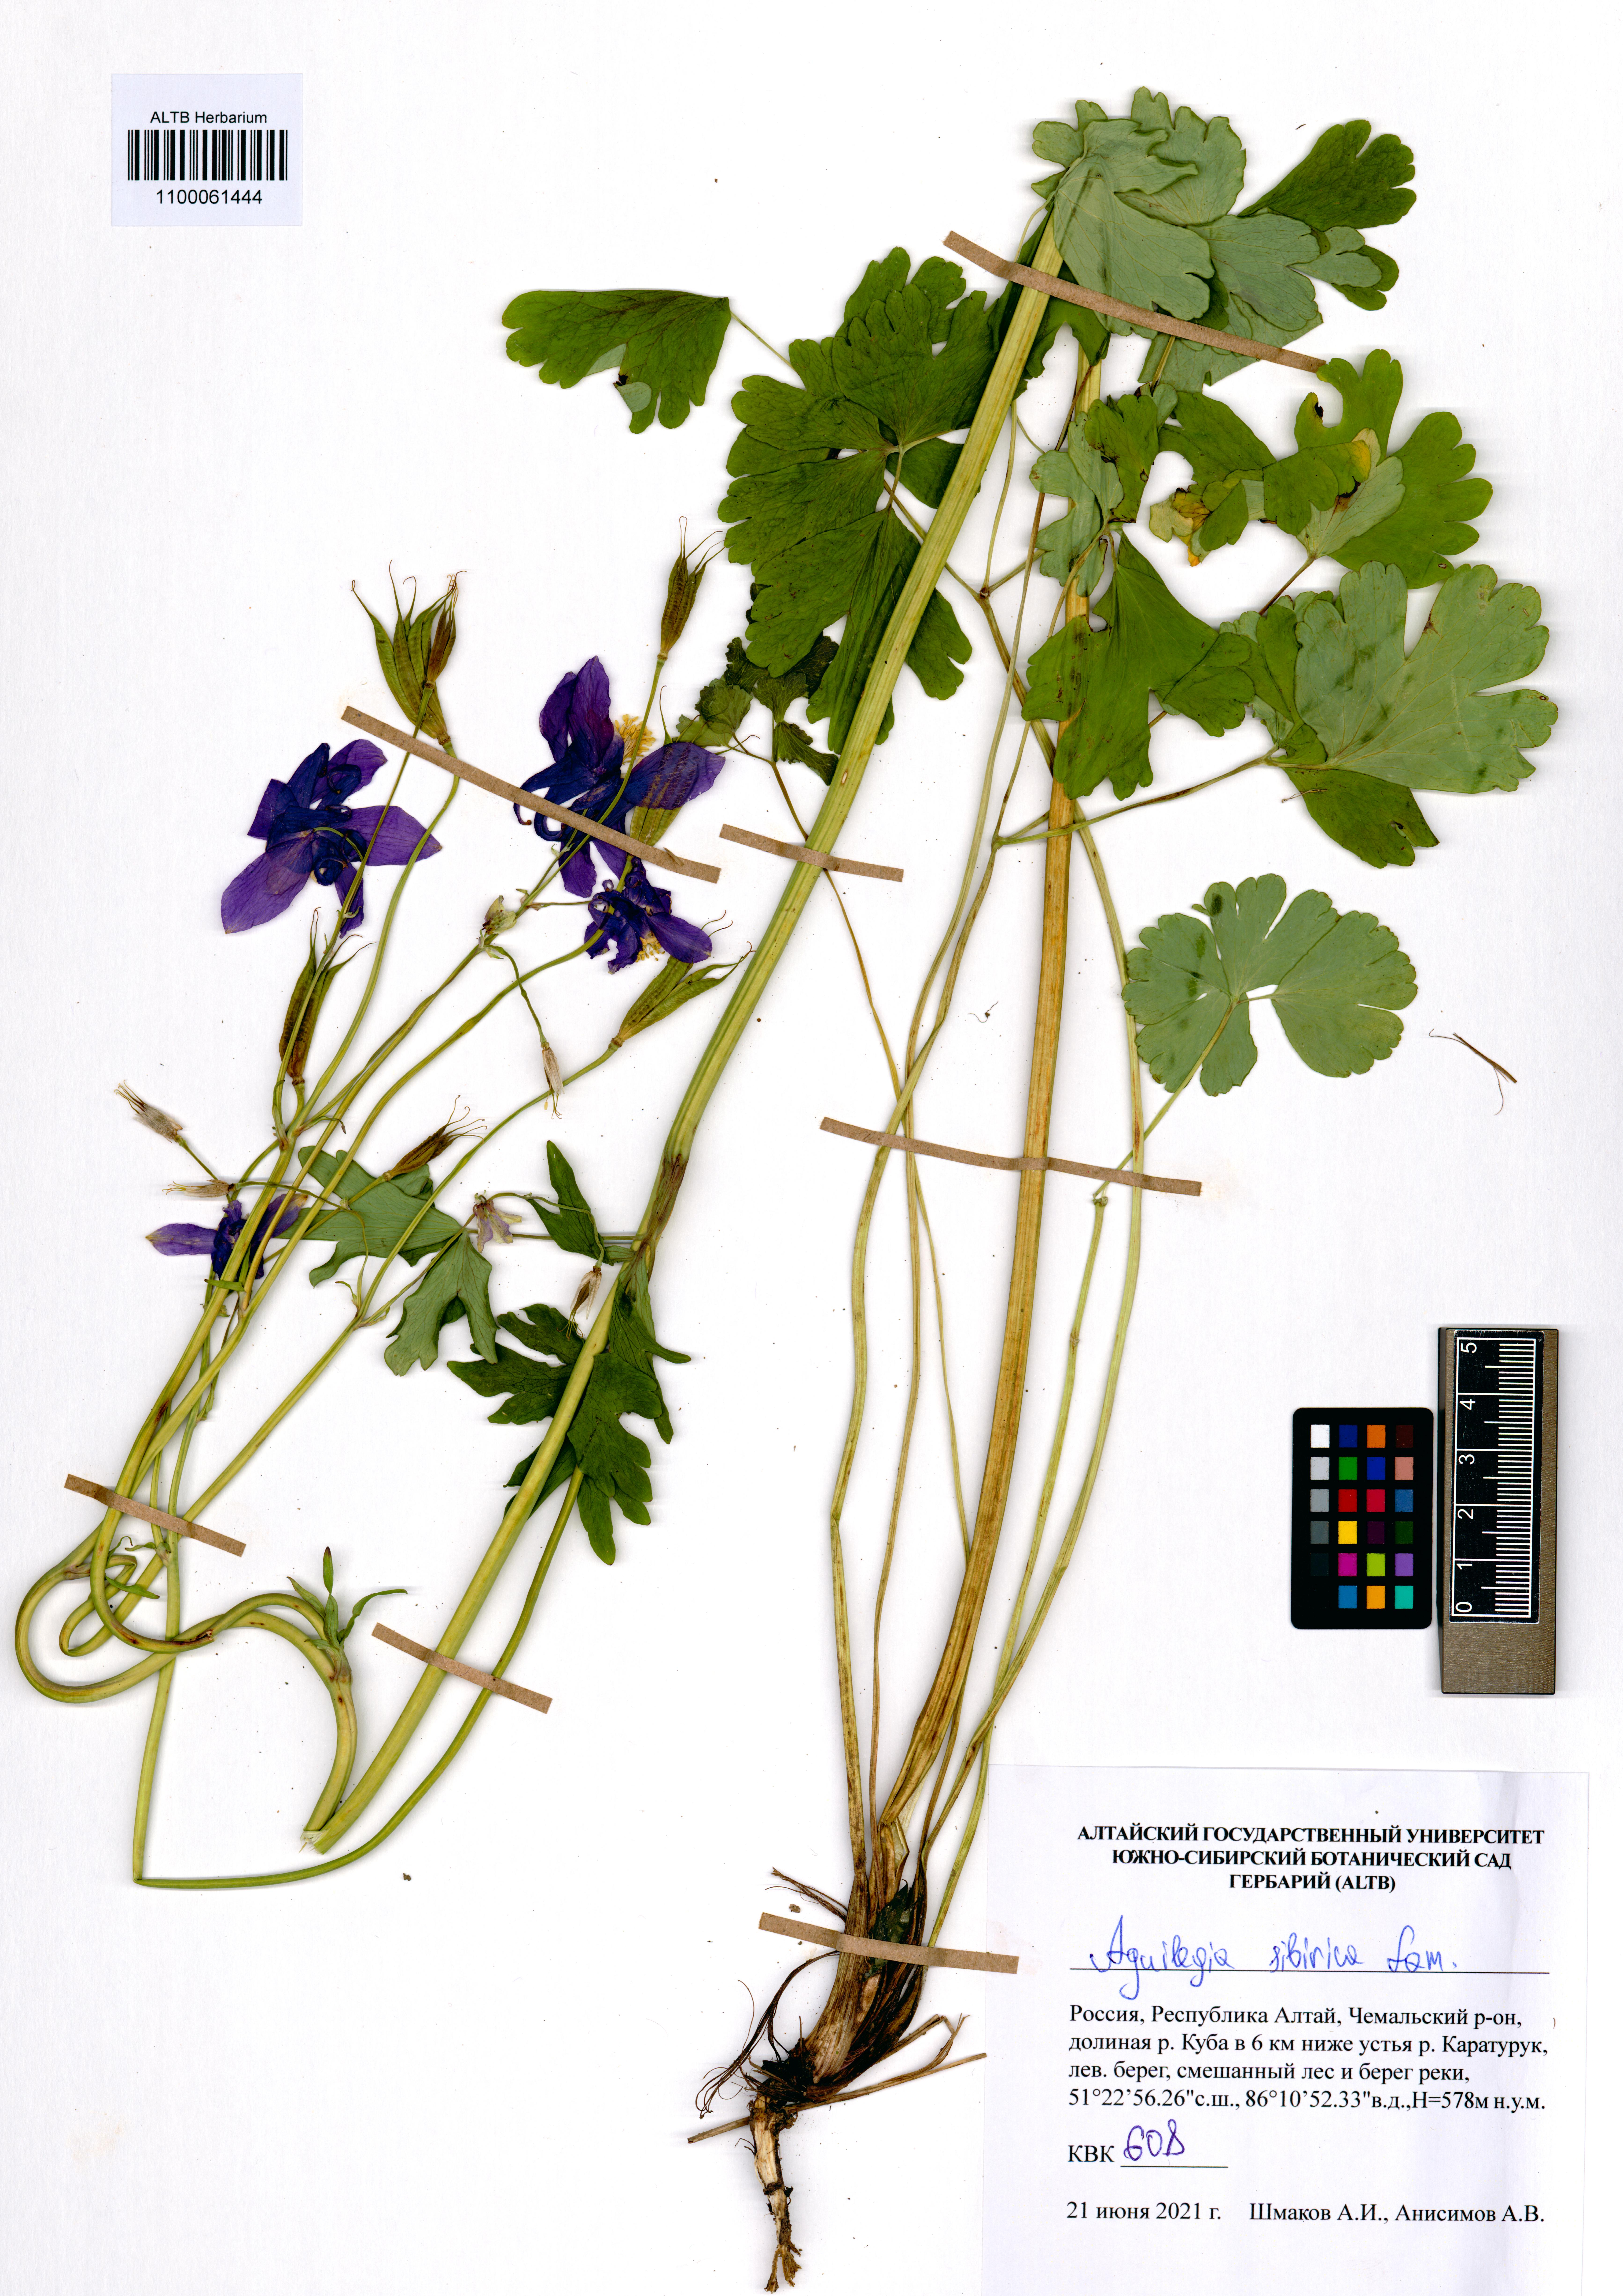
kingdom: Plantae
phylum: Tracheophyta
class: Magnoliopsida
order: Ranunculales
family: Ranunculaceae
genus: Aquilegia
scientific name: Aquilegia sibirica
